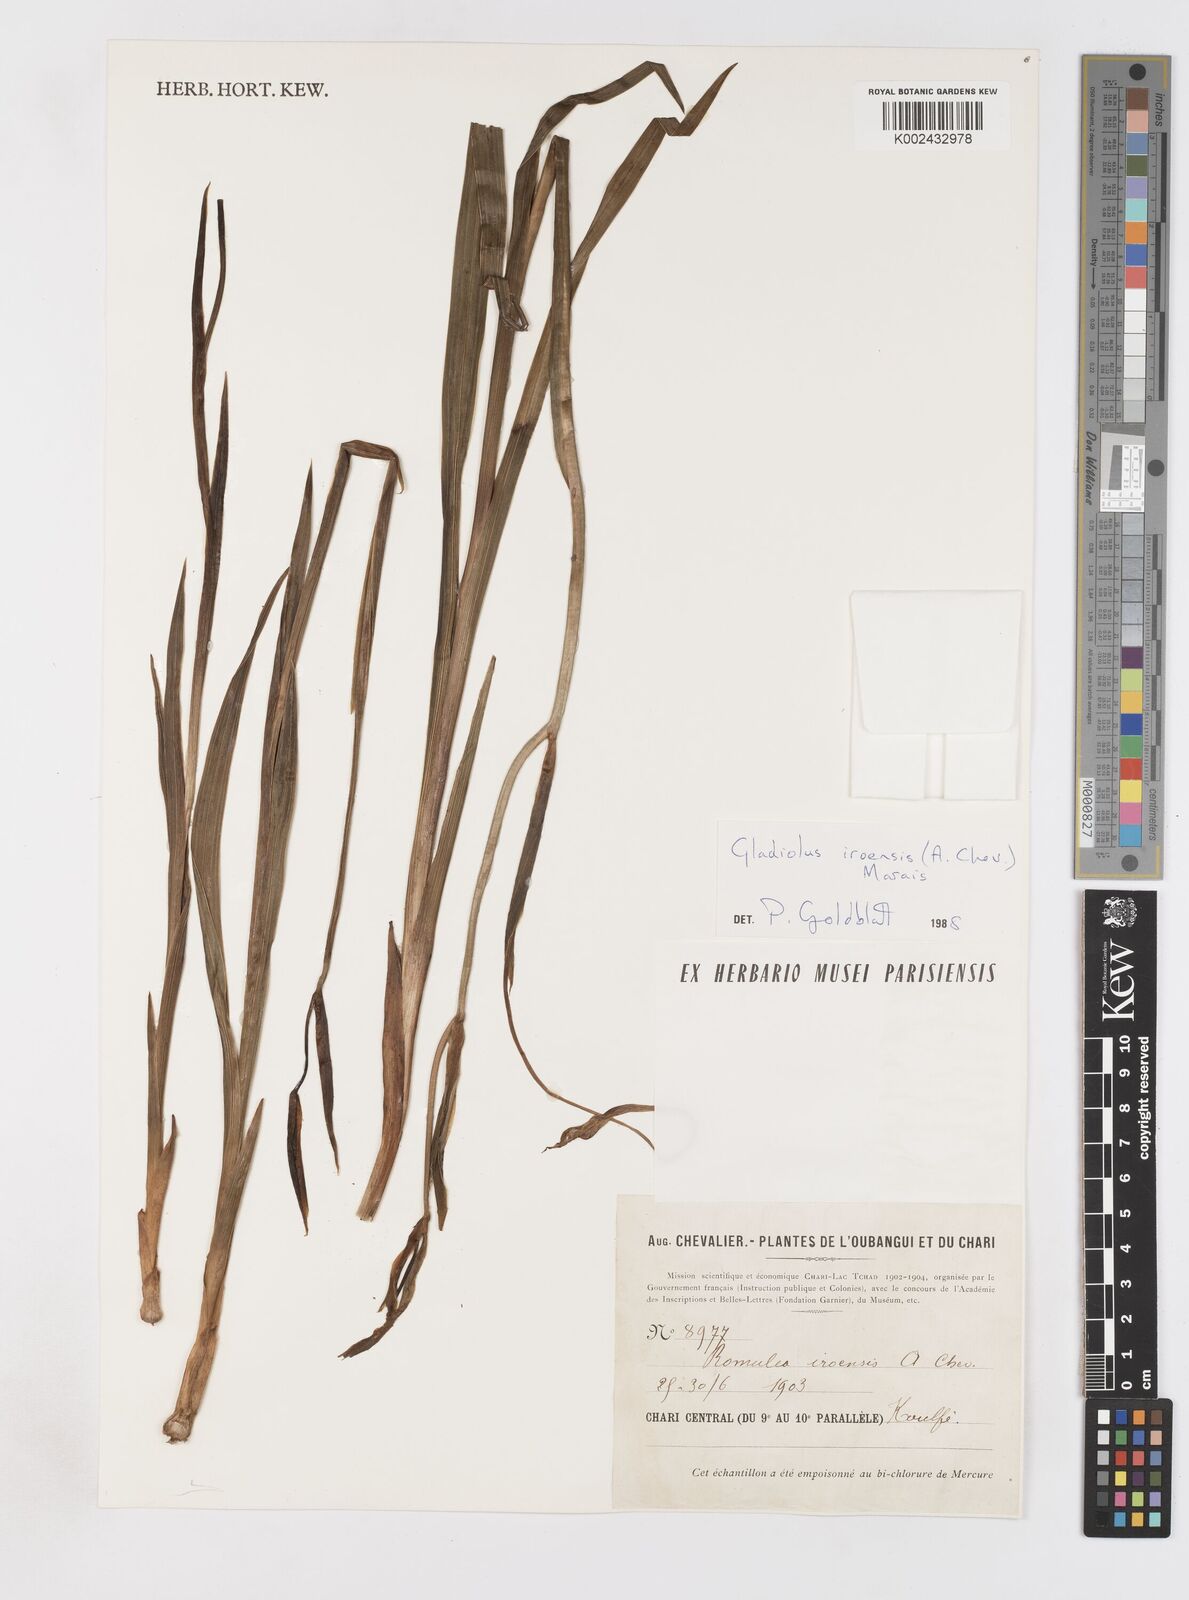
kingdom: Plantae
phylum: Tracheophyta
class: Liliopsida
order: Asparagales
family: Iridaceae
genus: Gladiolus
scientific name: Gladiolus iroensis
